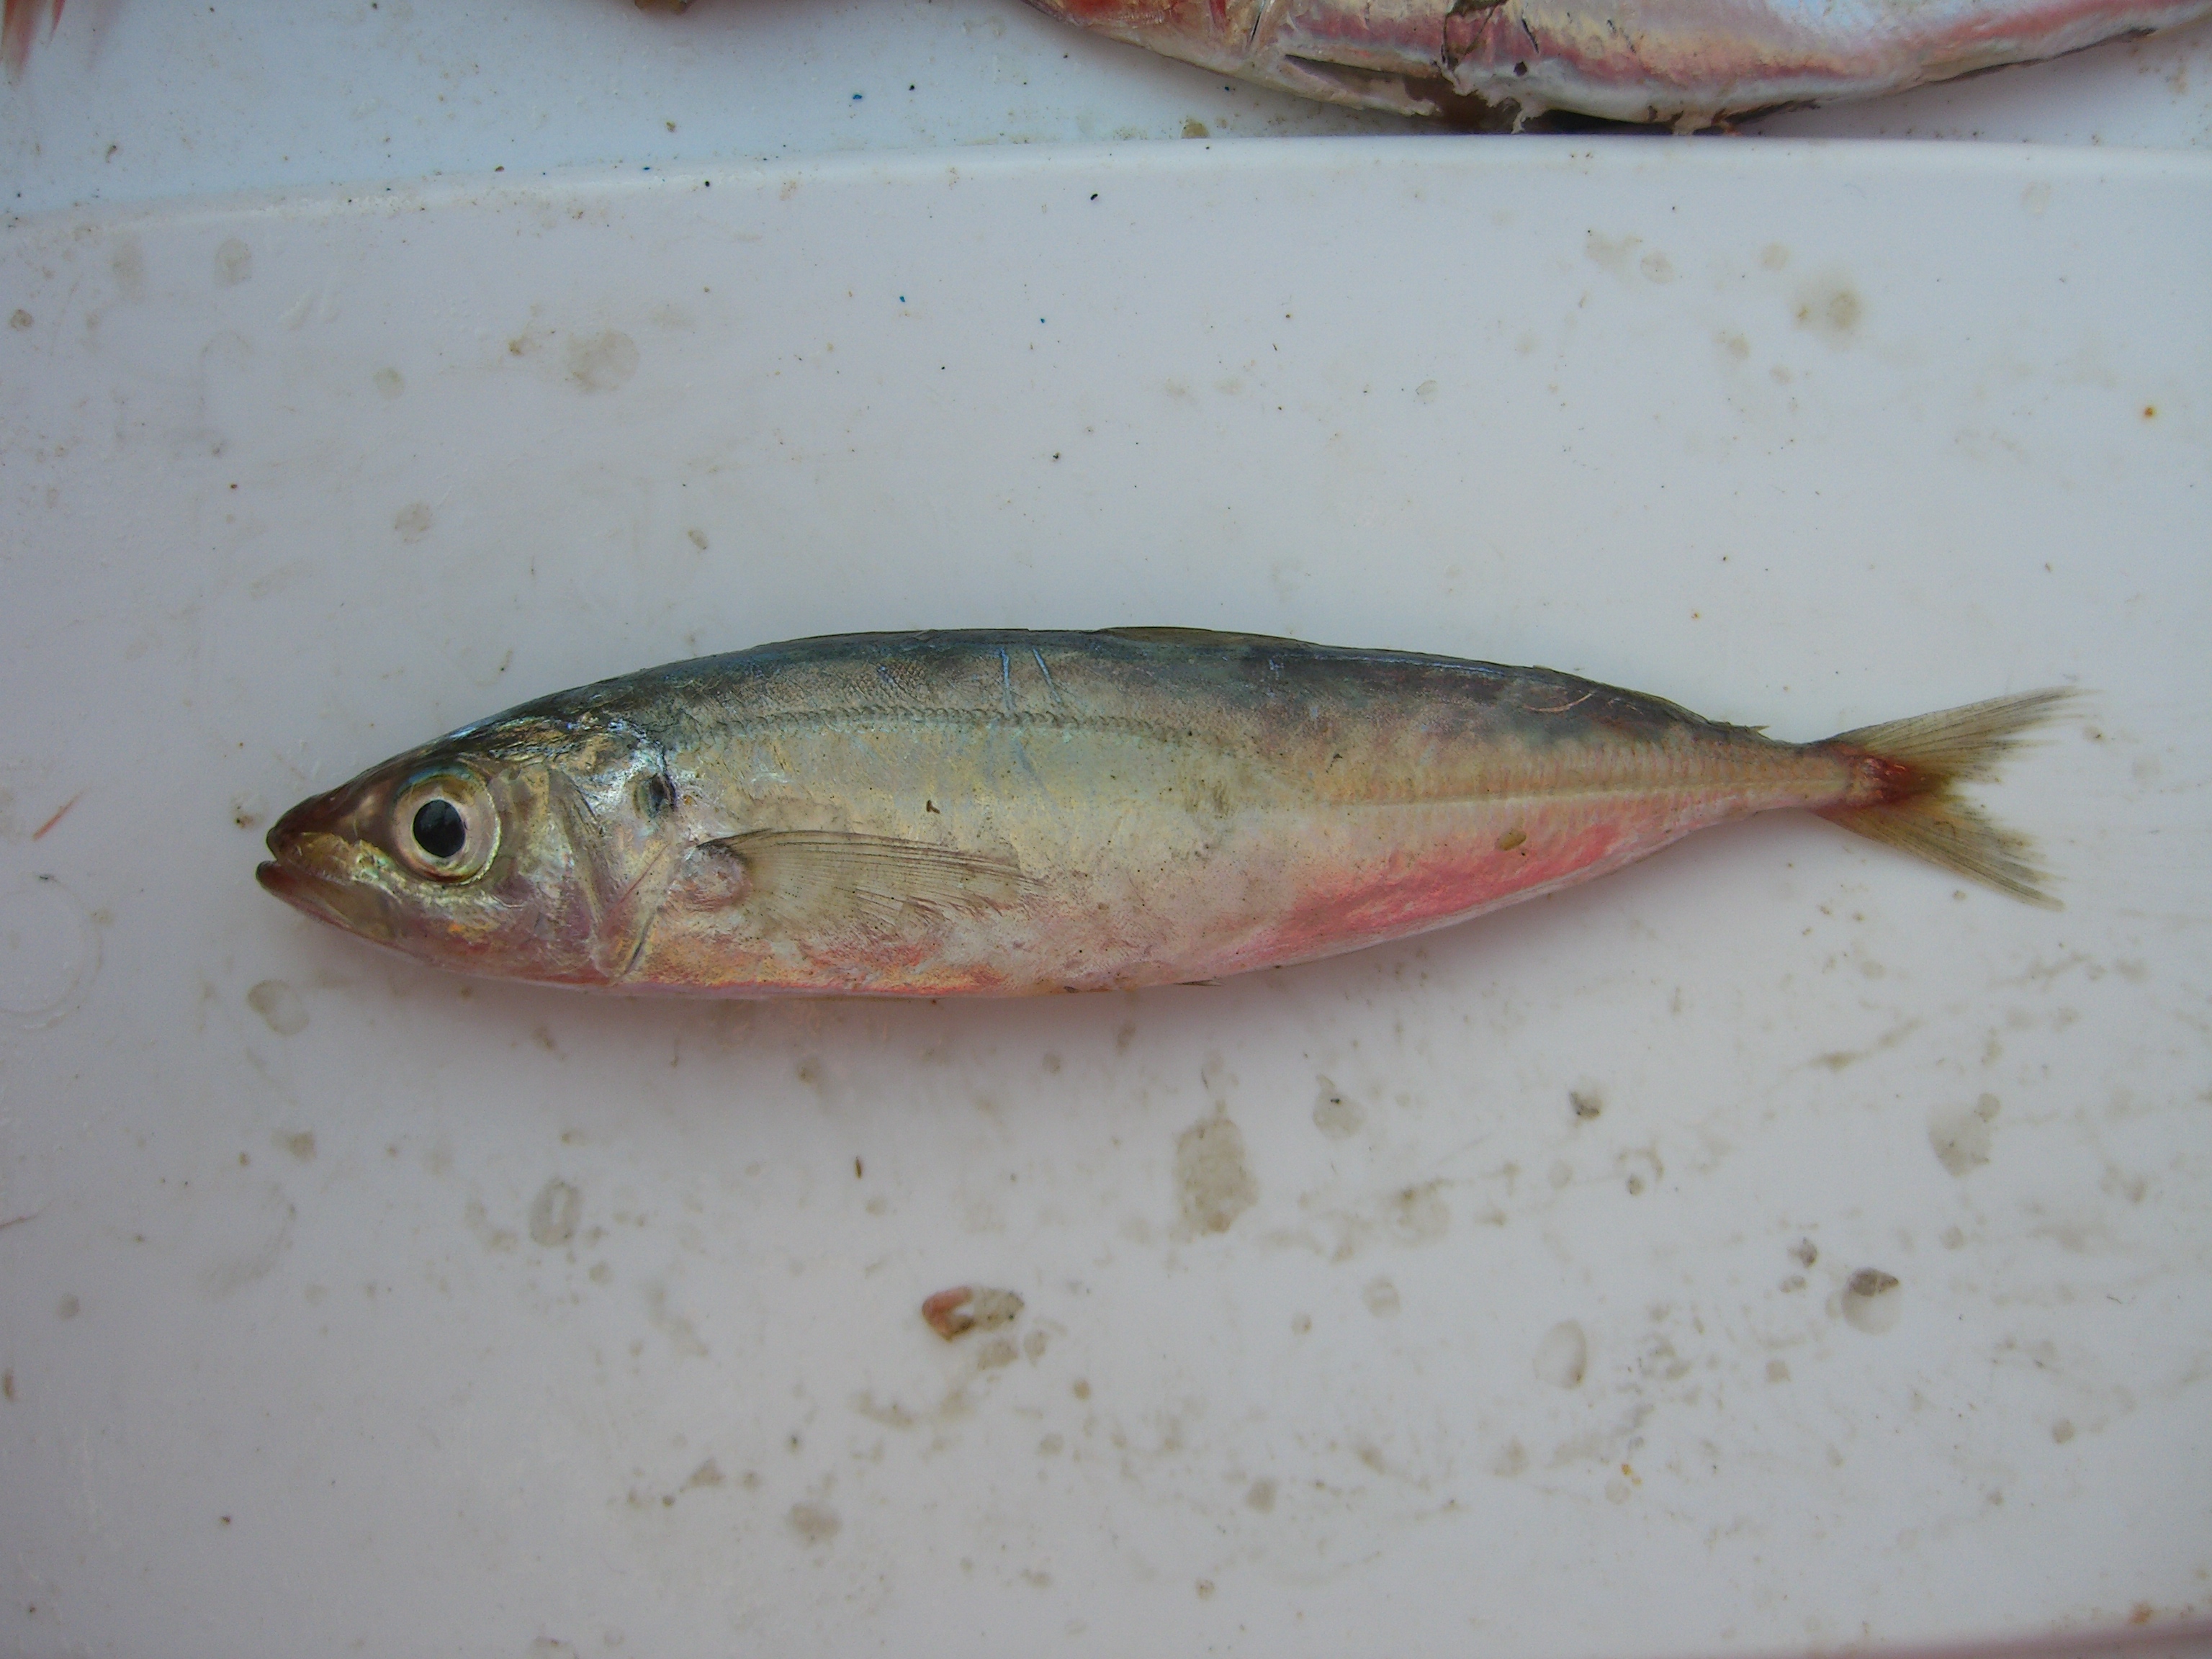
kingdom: Animalia
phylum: Chordata
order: Perciformes
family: Carangidae
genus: Decapterus
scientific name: Decapterus russelli
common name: Indian scad
